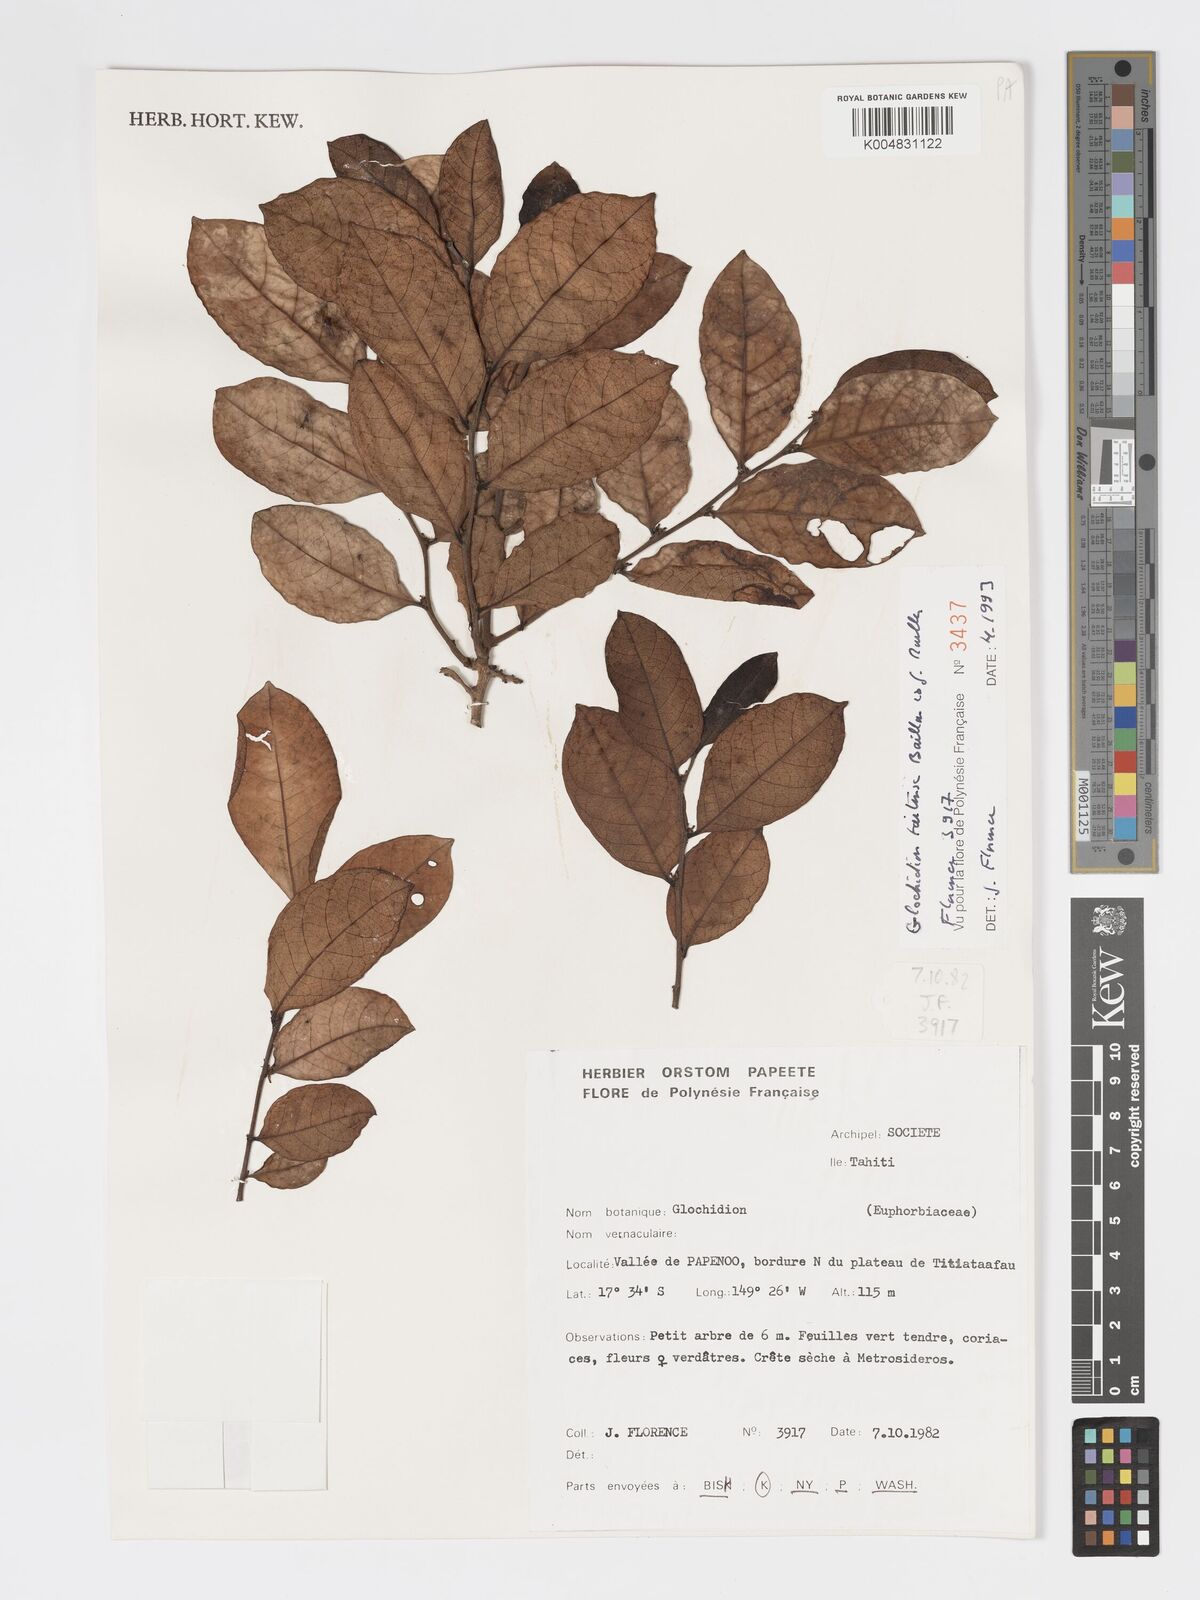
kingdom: Plantae
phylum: Tracheophyta
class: Magnoliopsida
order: Malpighiales
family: Phyllanthaceae
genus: Glochidion
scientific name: Glochidion taitense
